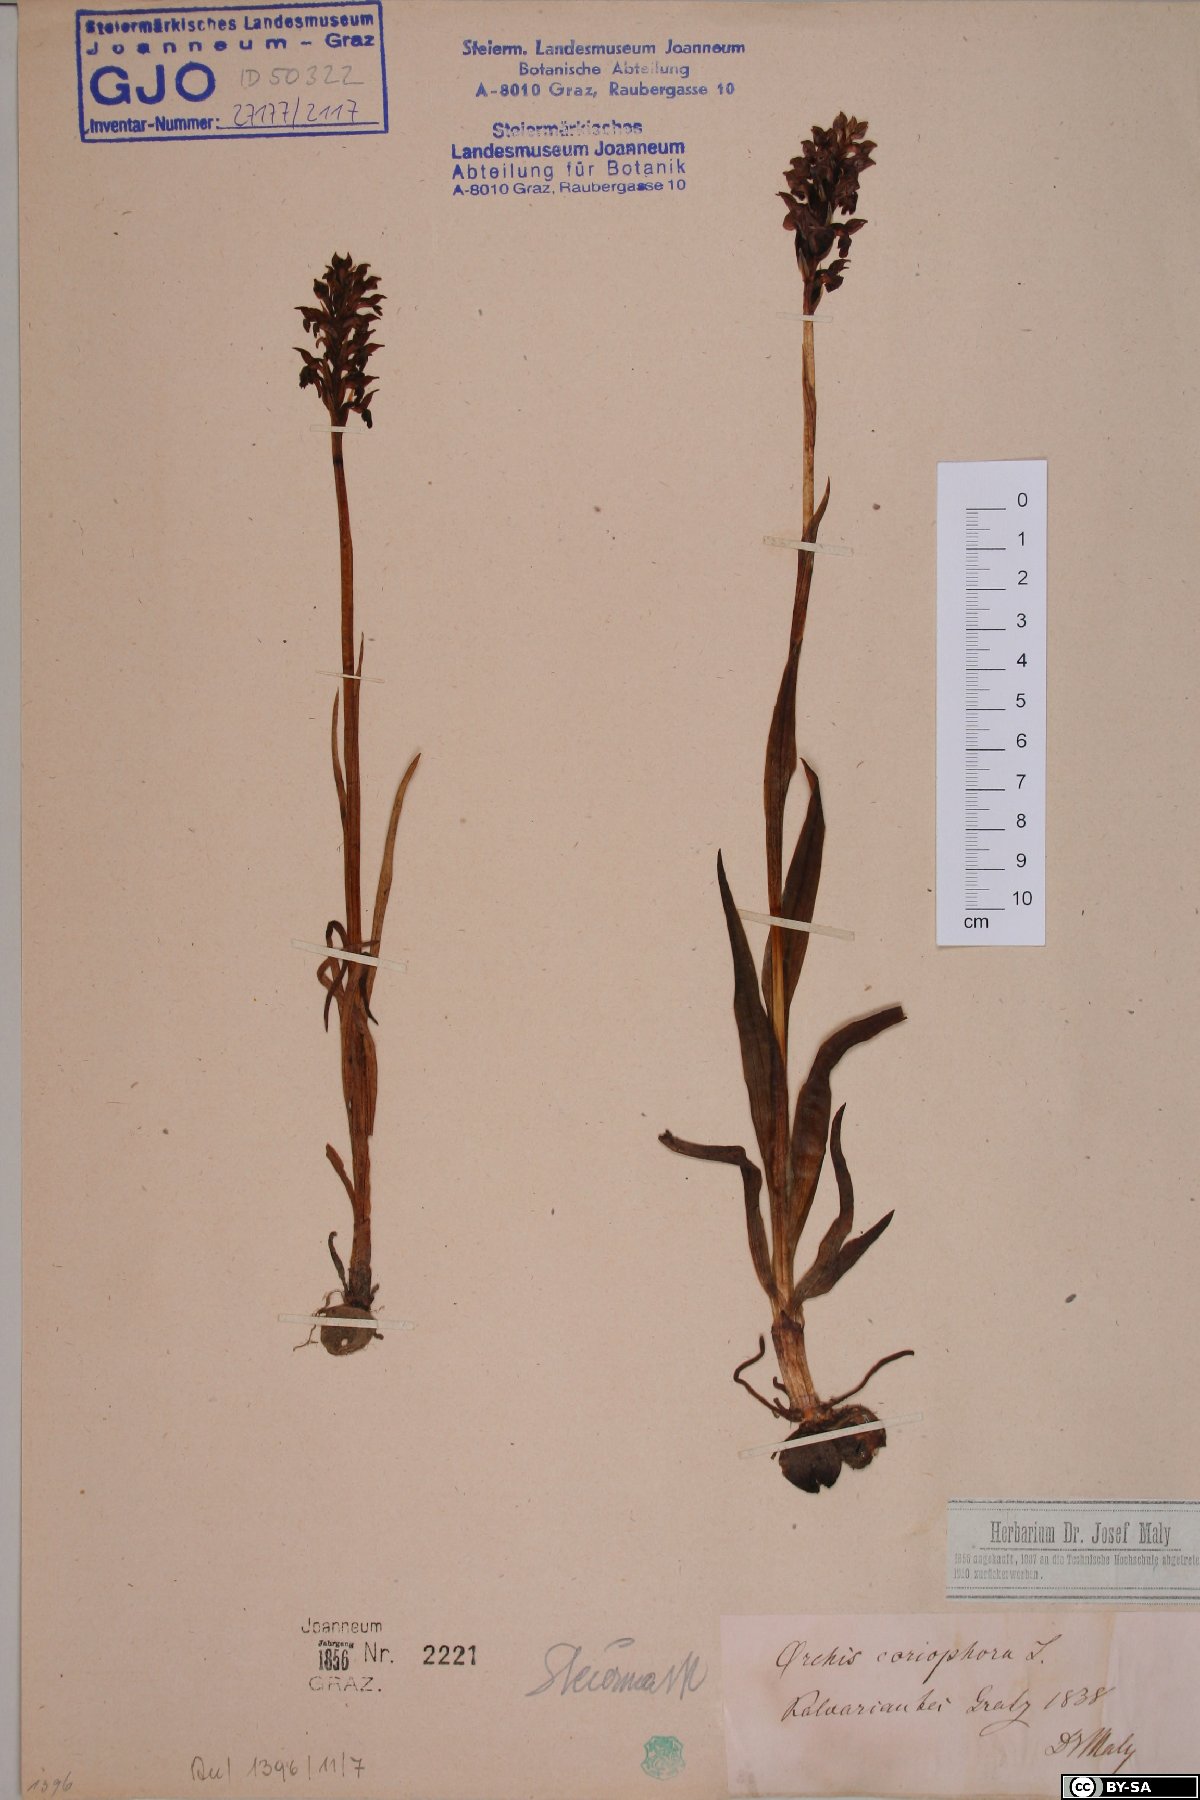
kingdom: Plantae
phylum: Tracheophyta
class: Liliopsida
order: Asparagales
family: Orchidaceae
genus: Anacamptis
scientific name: Anacamptis coriophora
